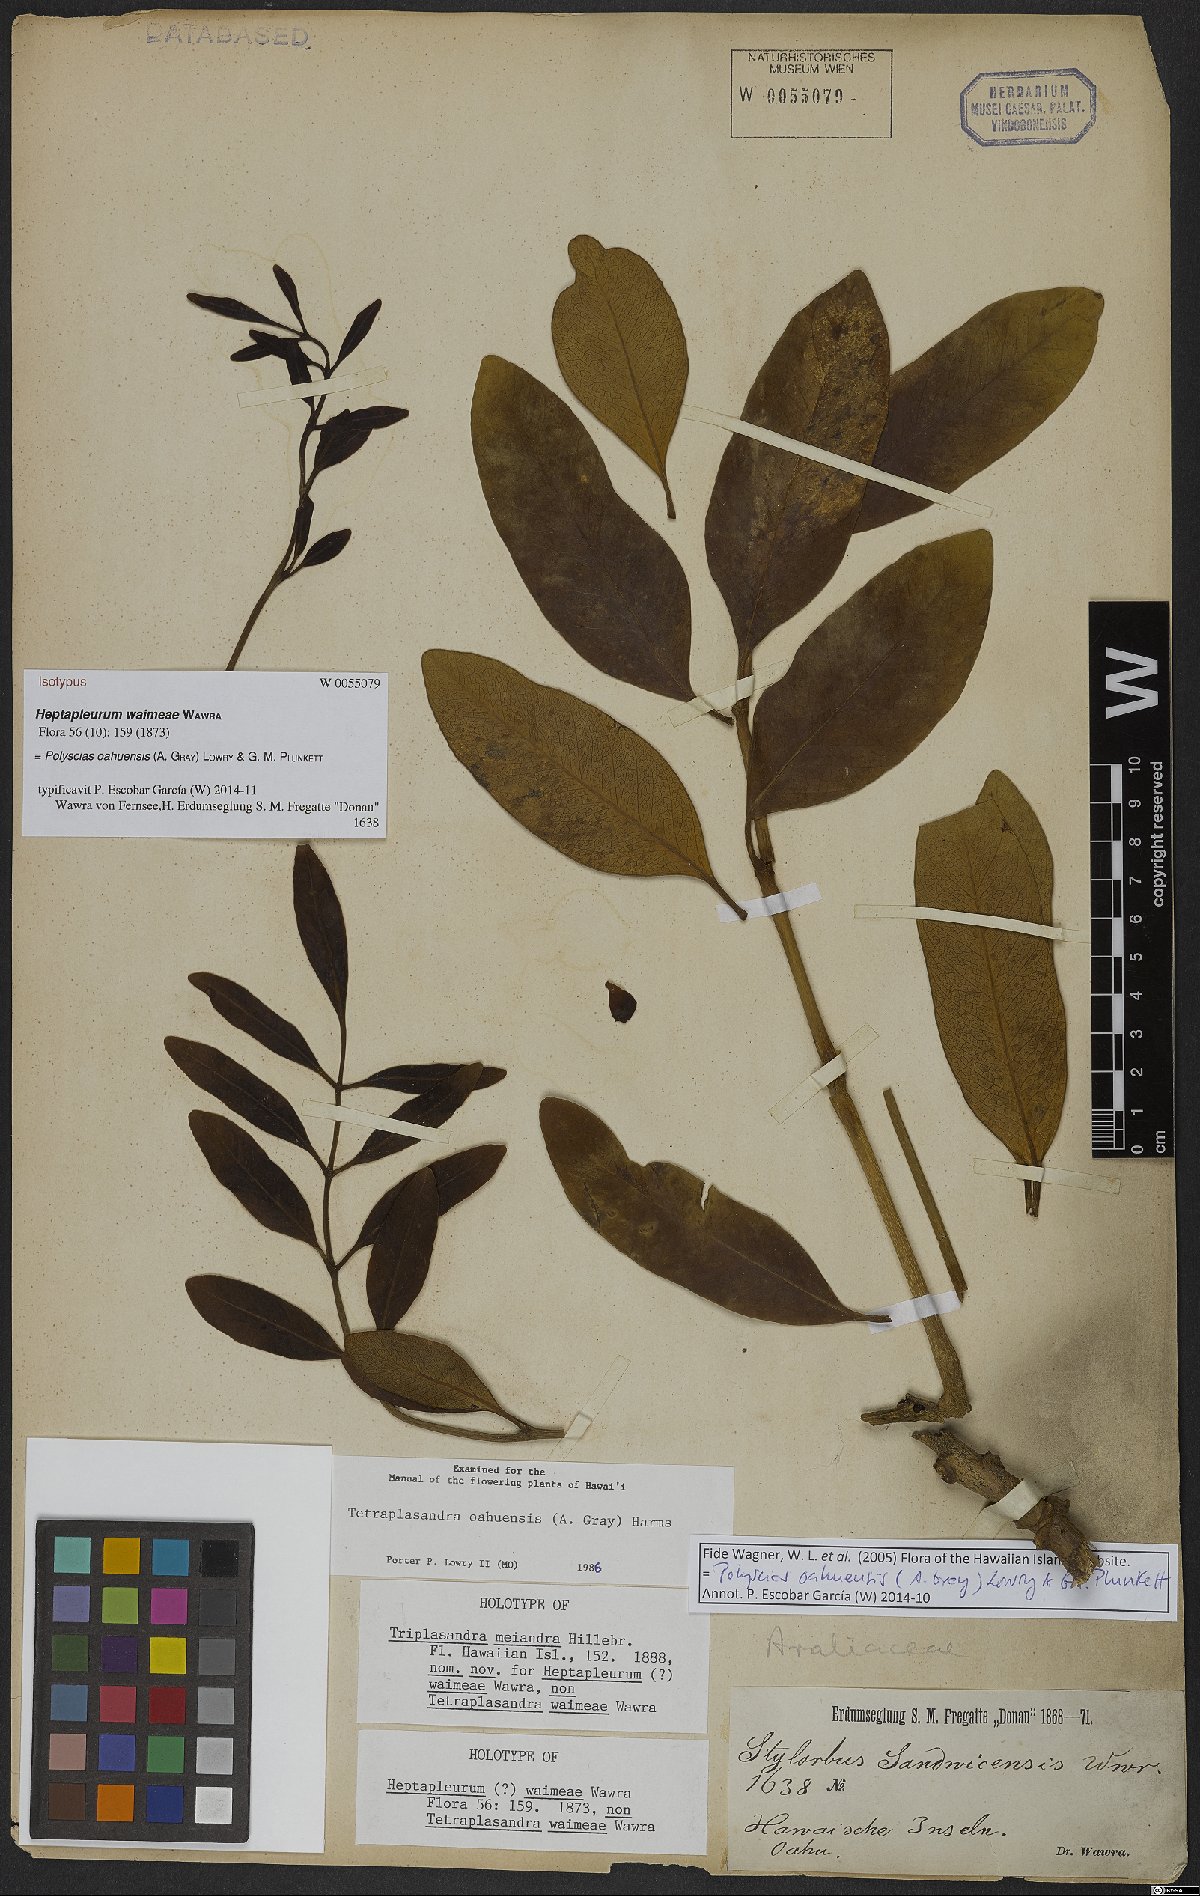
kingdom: Plantae
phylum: Tracheophyta
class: Magnoliopsida
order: Apiales
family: Araliaceae
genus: Polyscias
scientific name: Polyscias oahuensis
